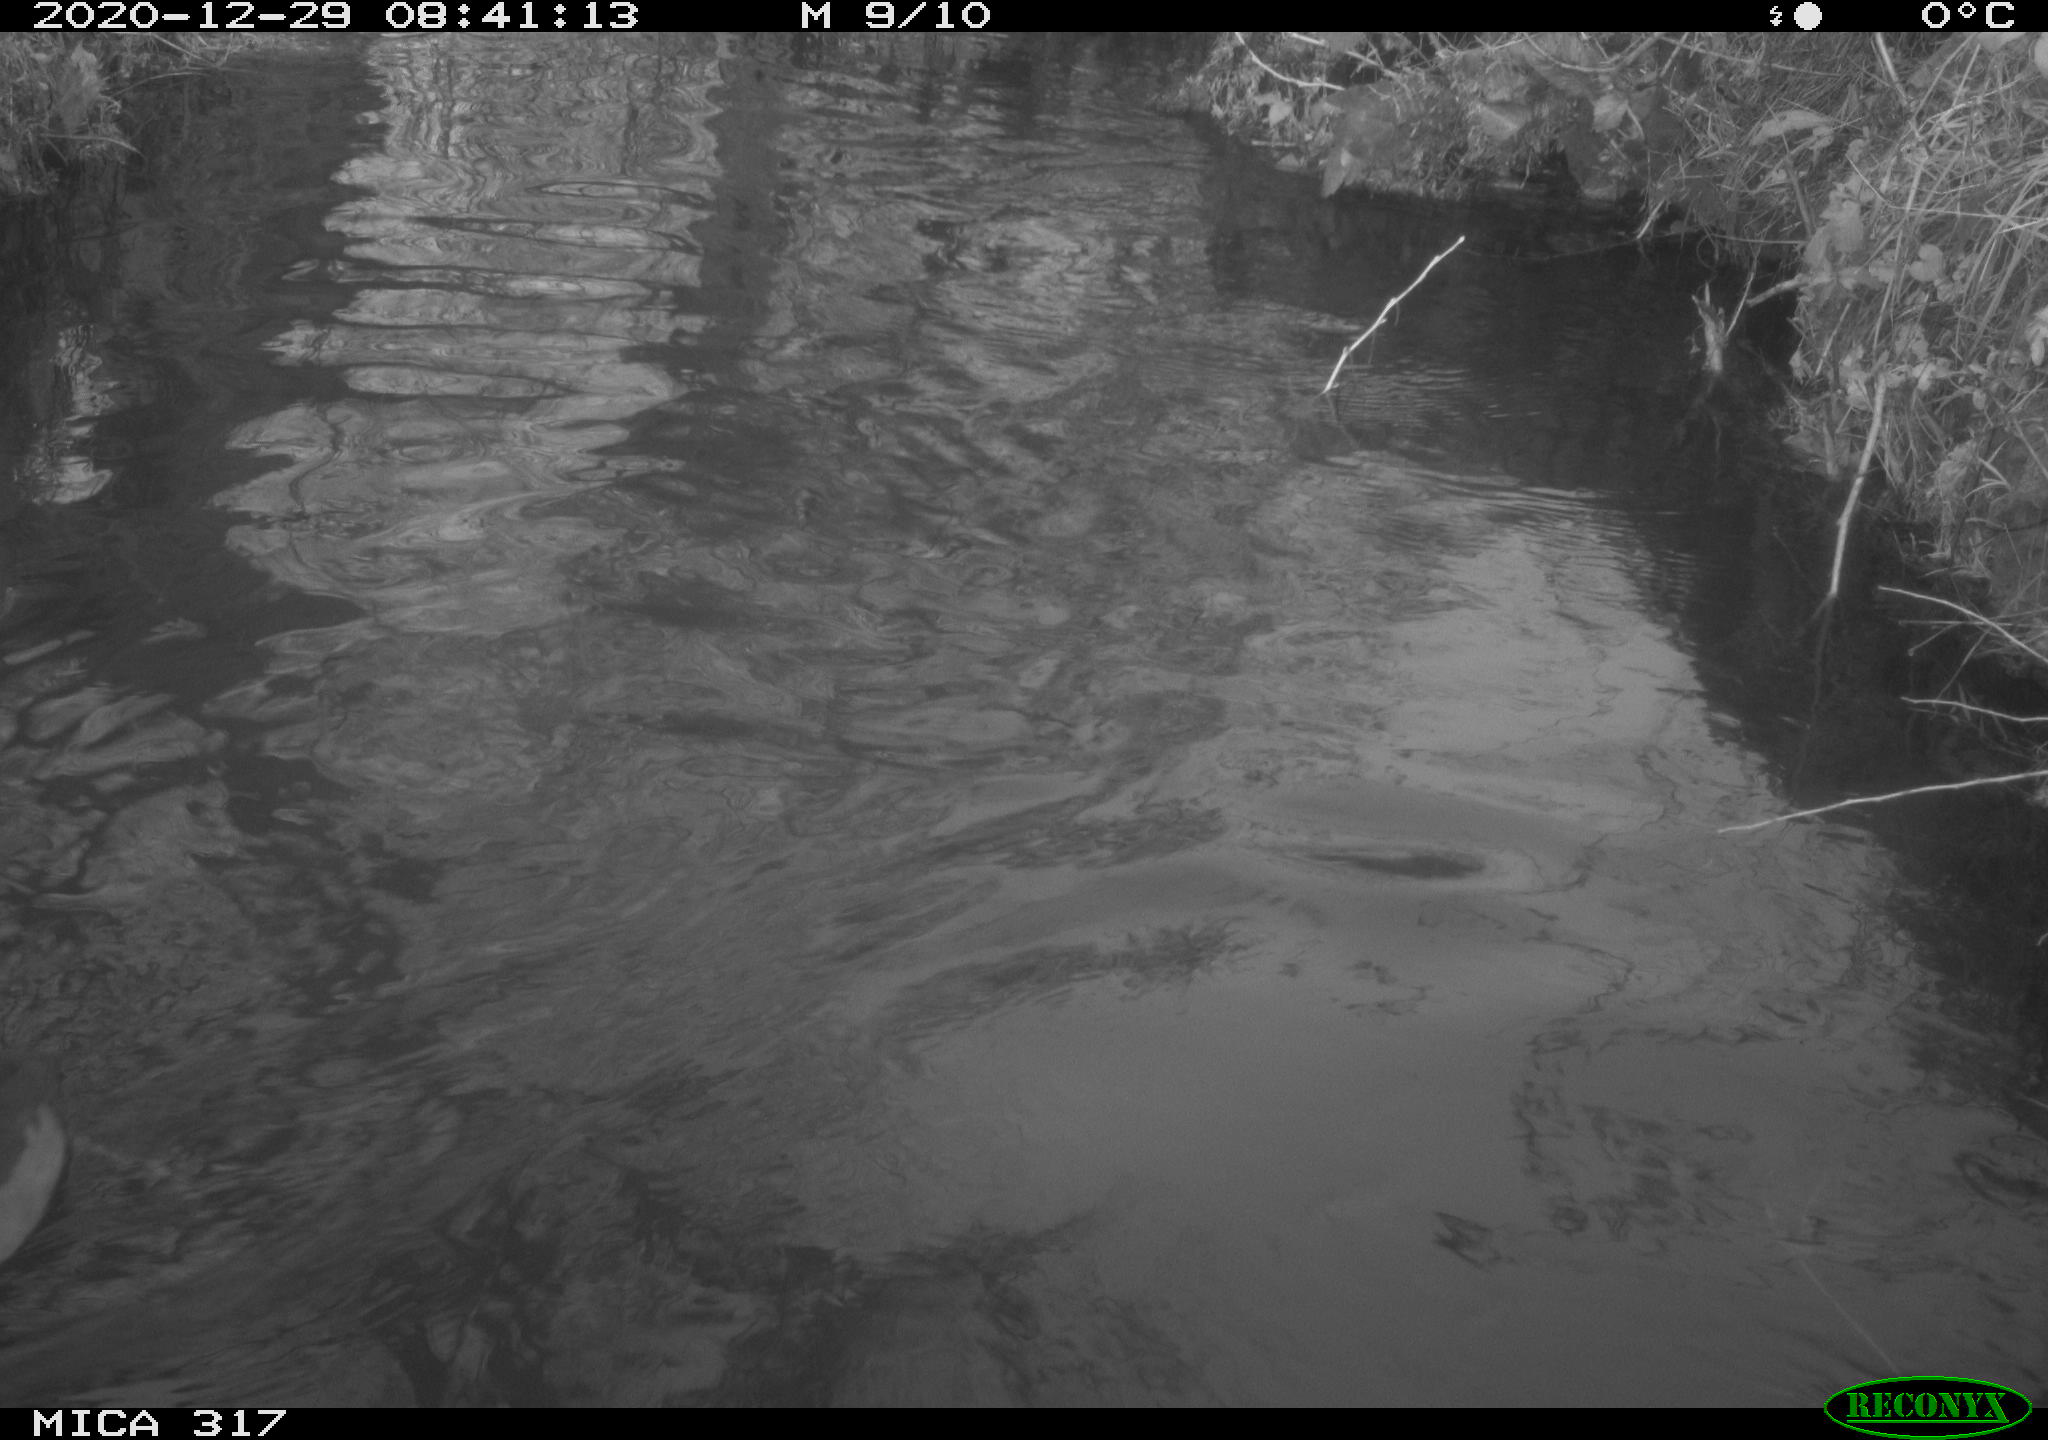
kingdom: Animalia
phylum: Chordata
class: Aves
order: Gruiformes
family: Rallidae
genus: Fulica
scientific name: Fulica atra
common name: Eurasian coot
